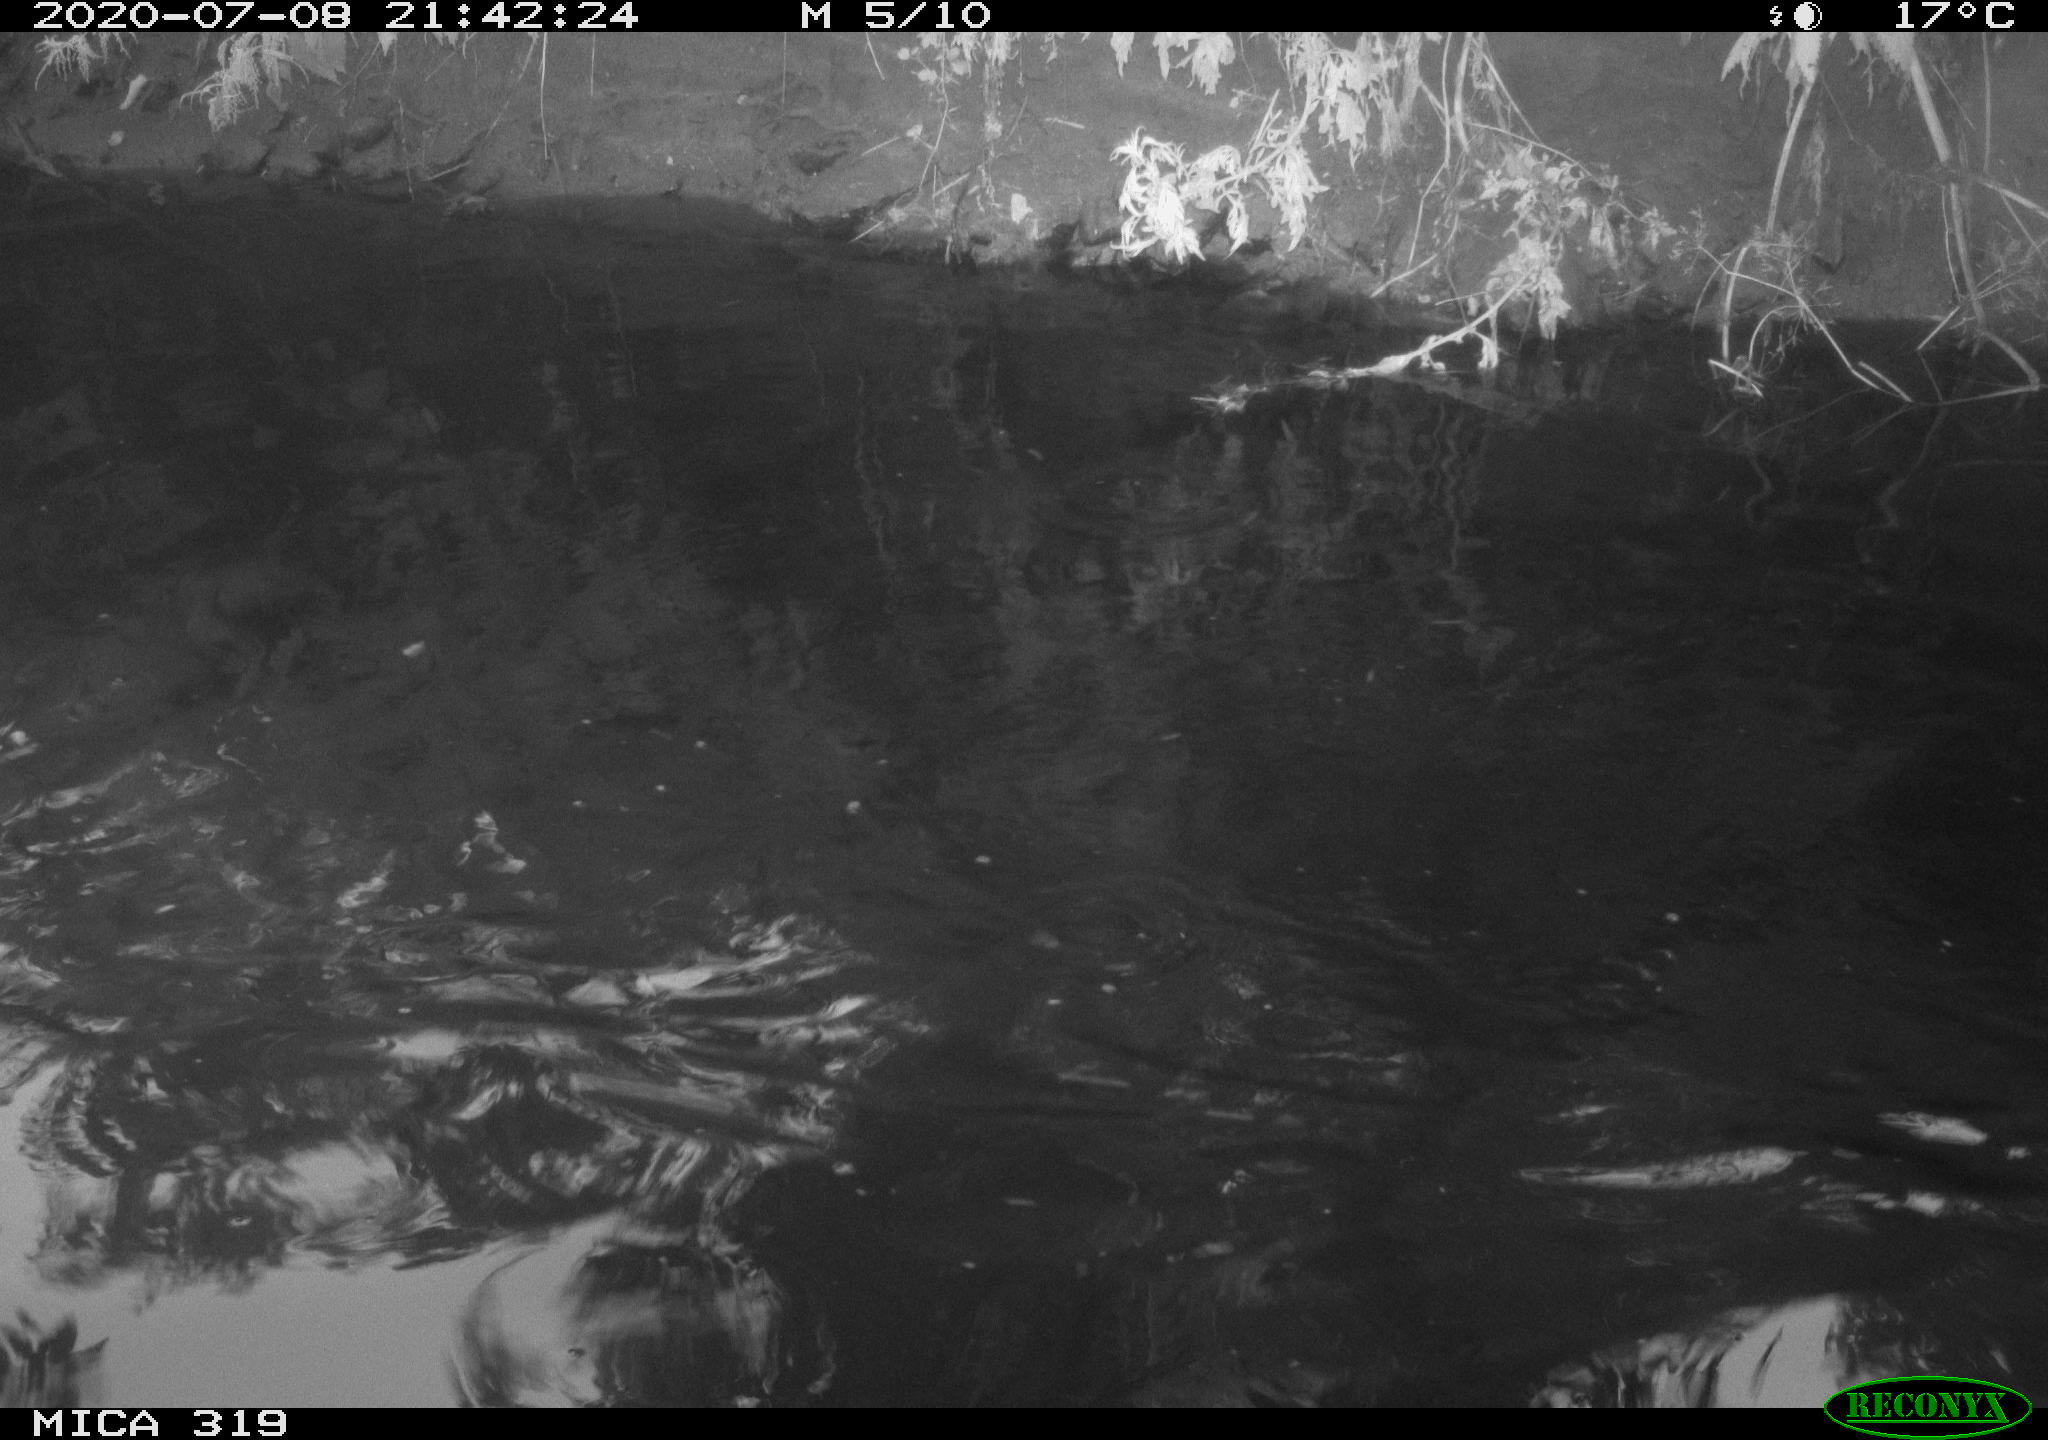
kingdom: Animalia
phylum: Chordata
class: Aves
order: Anseriformes
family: Anatidae
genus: Anas
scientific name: Anas platyrhynchos
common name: Mallard
